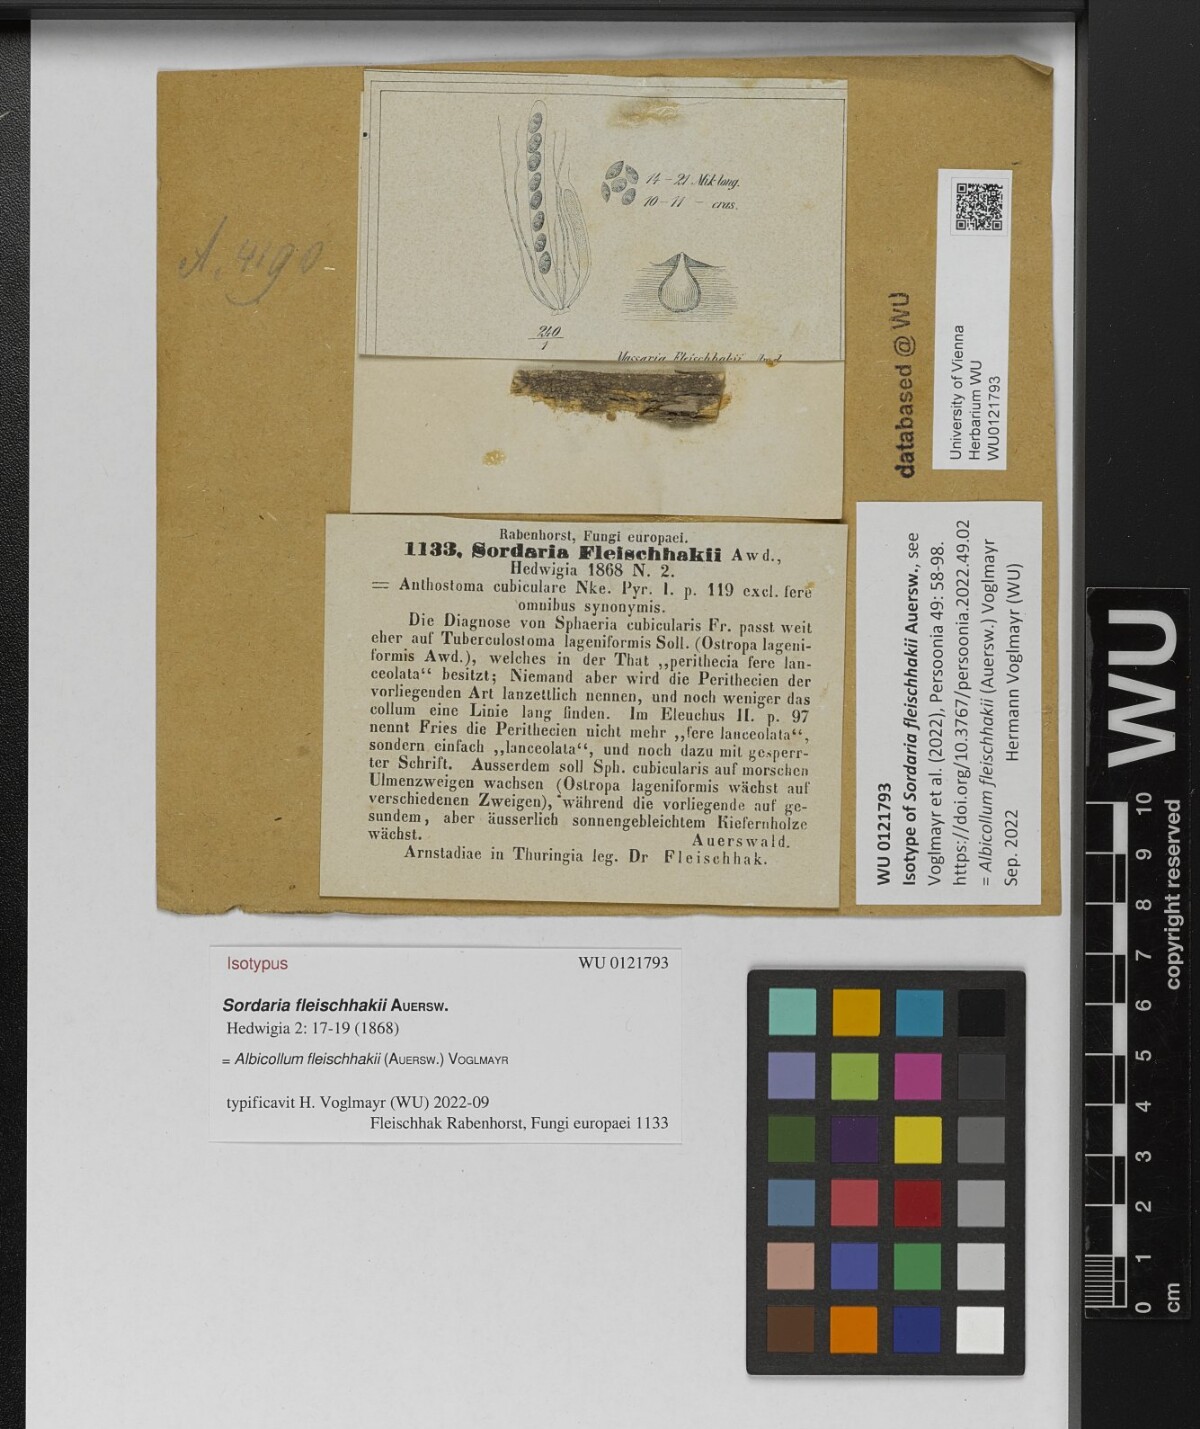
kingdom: Fungi
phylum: Ascomycota
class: Sordariomycetes
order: Xylariales
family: Xylariaceae
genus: Albicollum
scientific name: Albicollum fleischhakii
